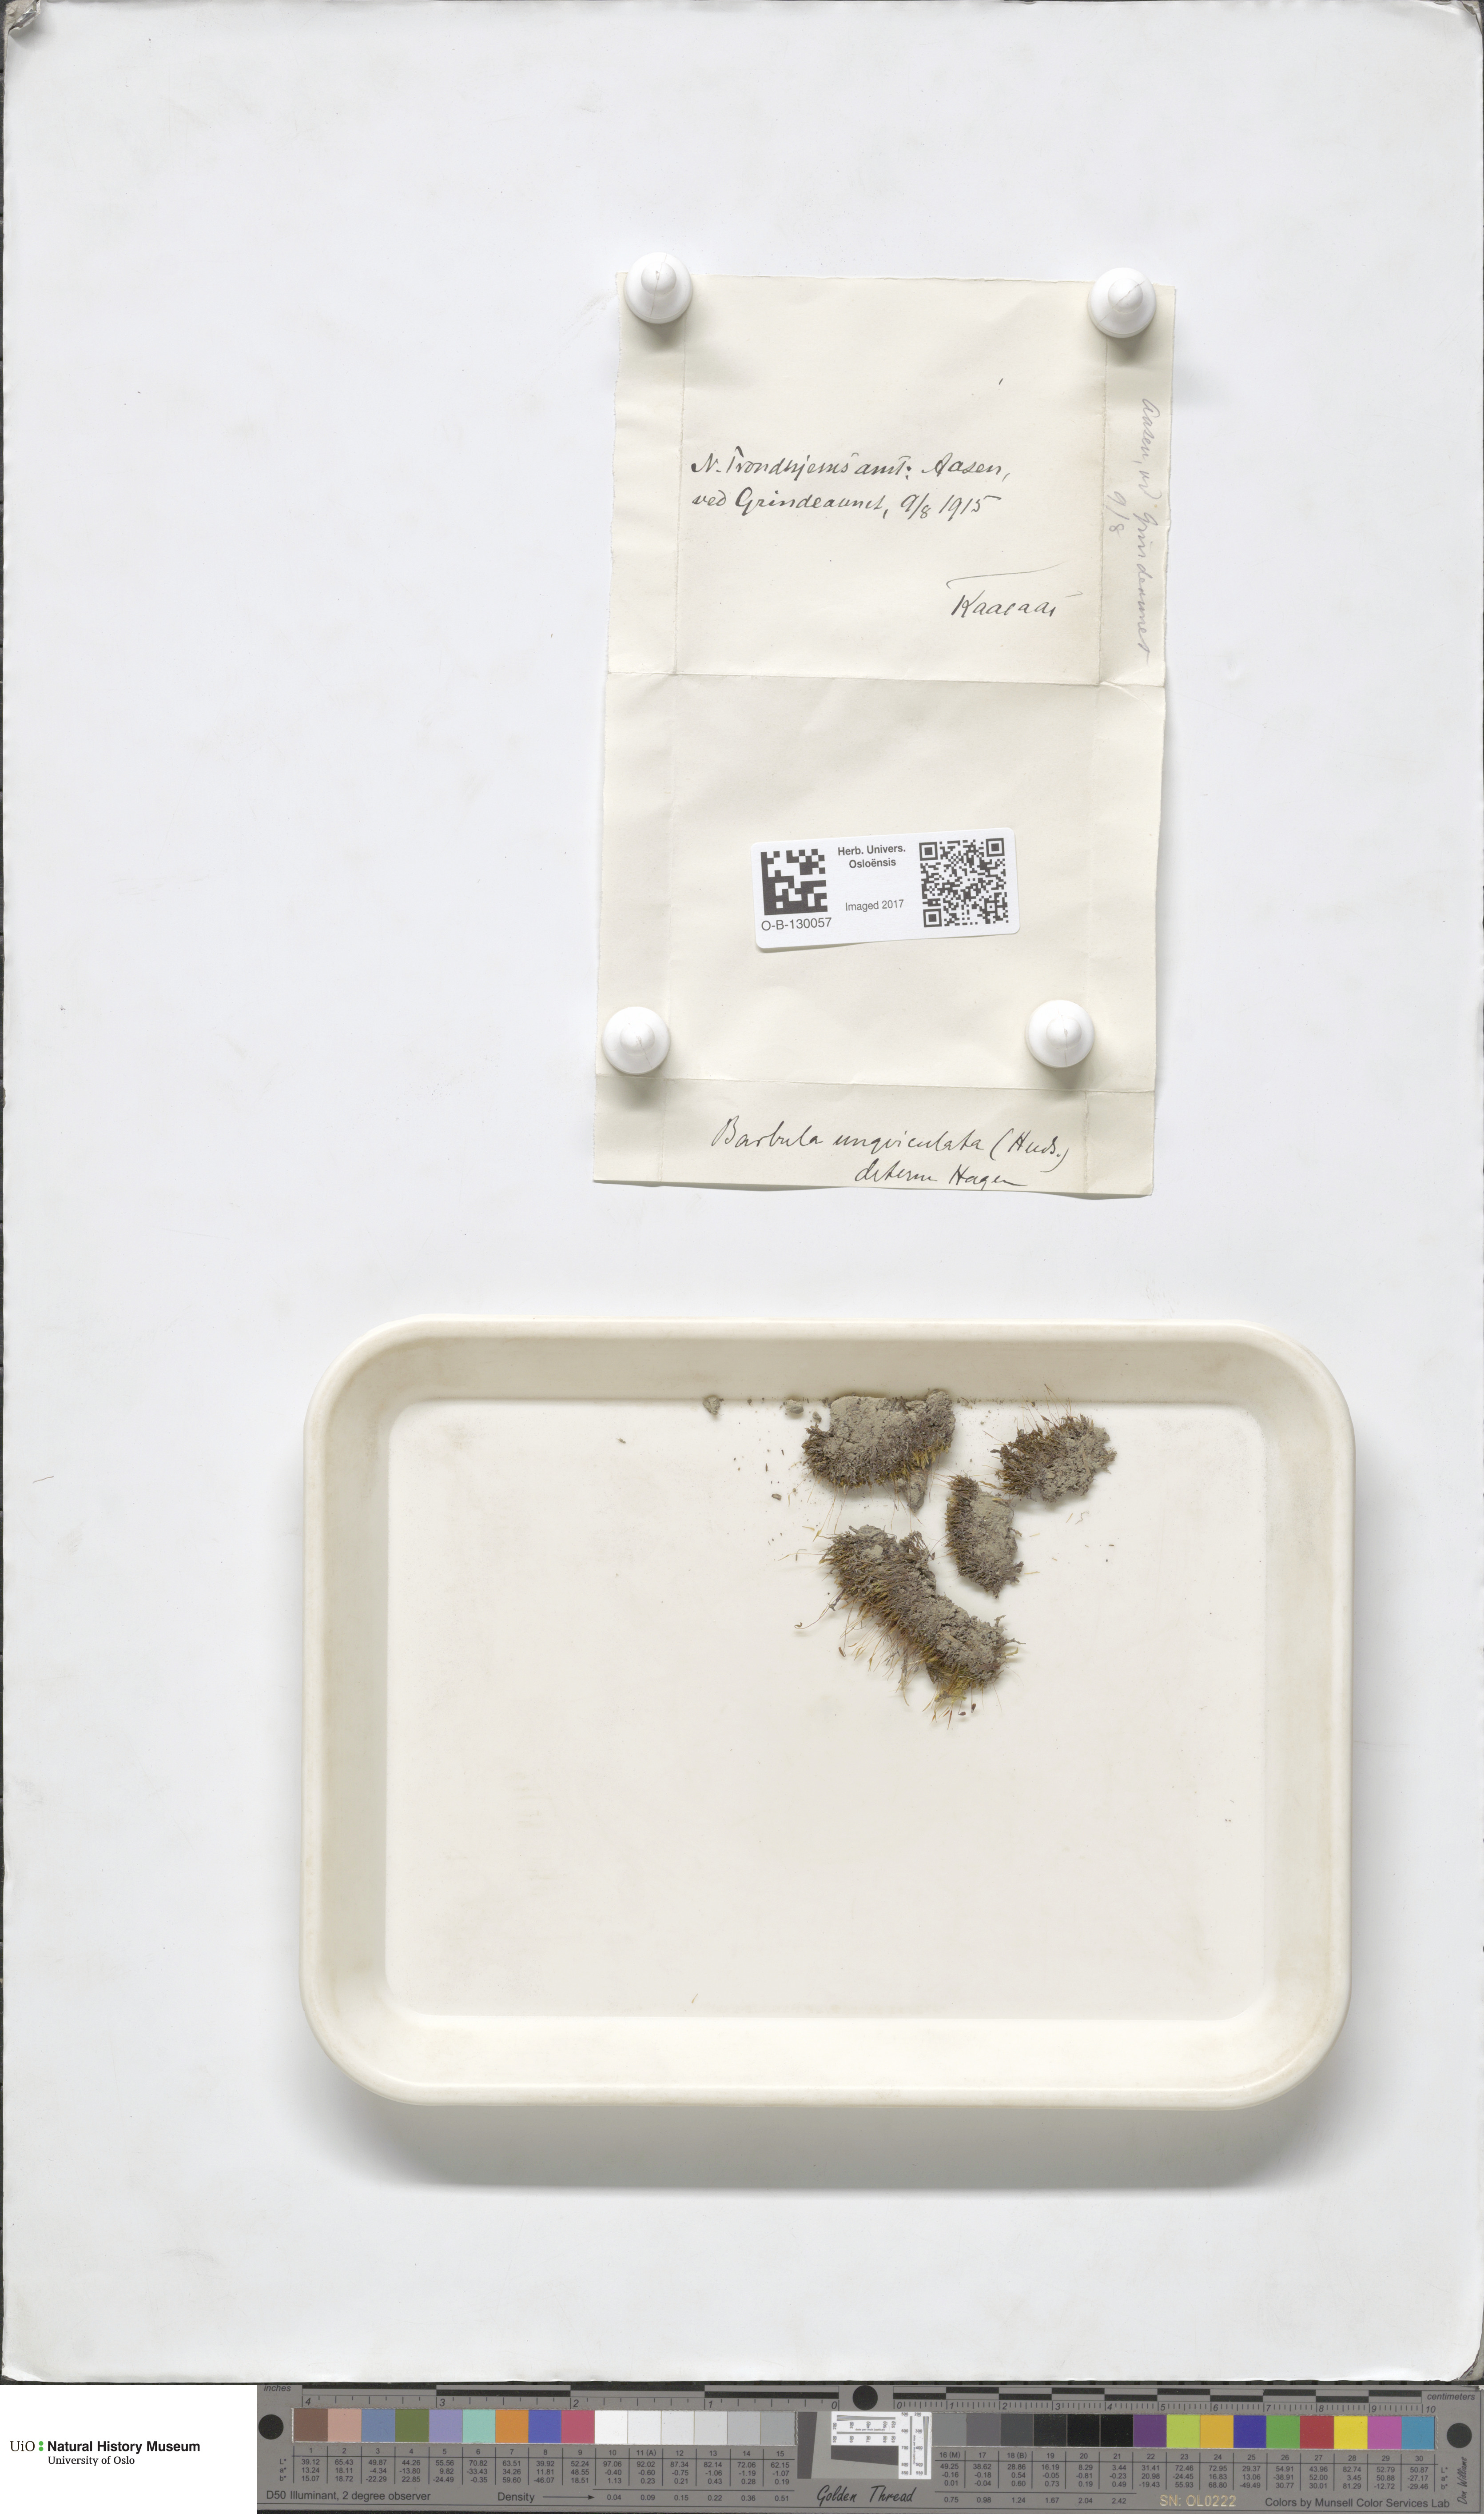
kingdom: Plantae
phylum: Bryophyta
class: Bryopsida
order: Pottiales
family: Pottiaceae
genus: Barbula
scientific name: Barbula unguiculata
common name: Prickly beard moss
